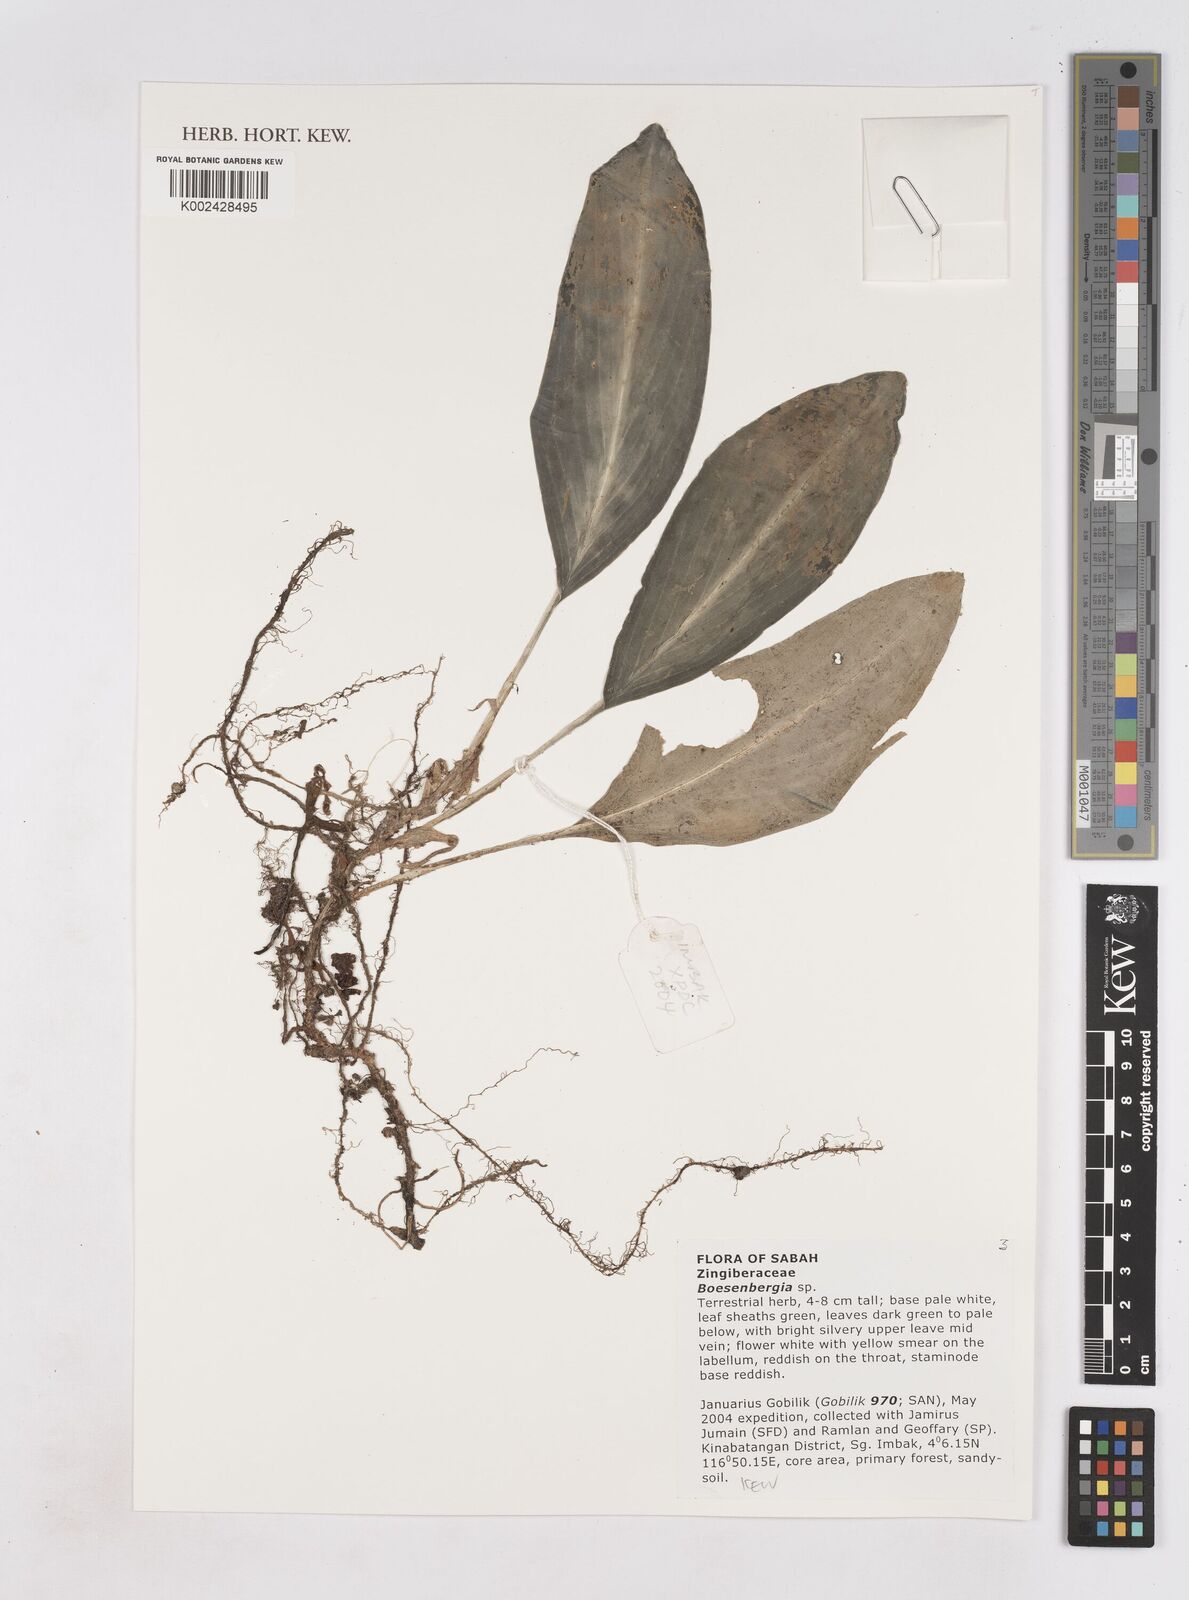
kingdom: Plantae
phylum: Tracheophyta
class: Liliopsida
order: Zingiberales
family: Zingiberaceae
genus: Boesenbergia
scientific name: Boesenbergia
